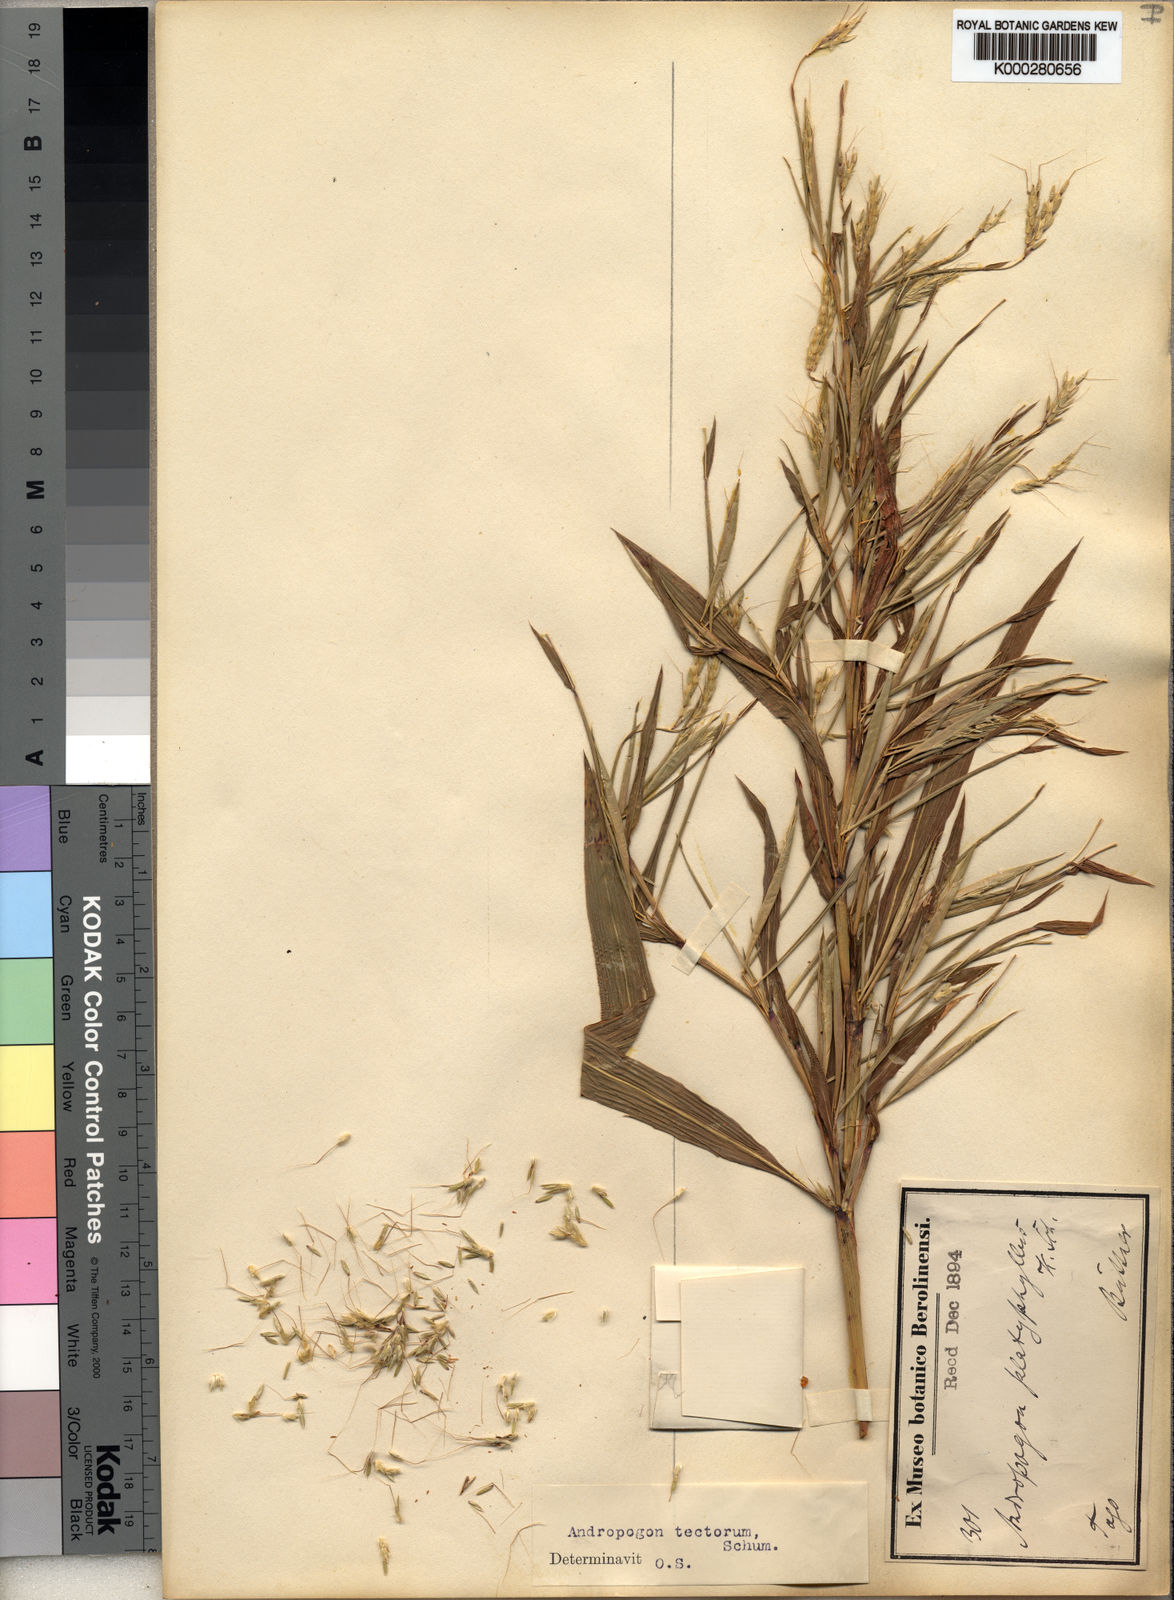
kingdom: Plantae
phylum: Tracheophyta
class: Liliopsida
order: Poales
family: Poaceae
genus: Andropogon
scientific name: Andropogon tectorum
